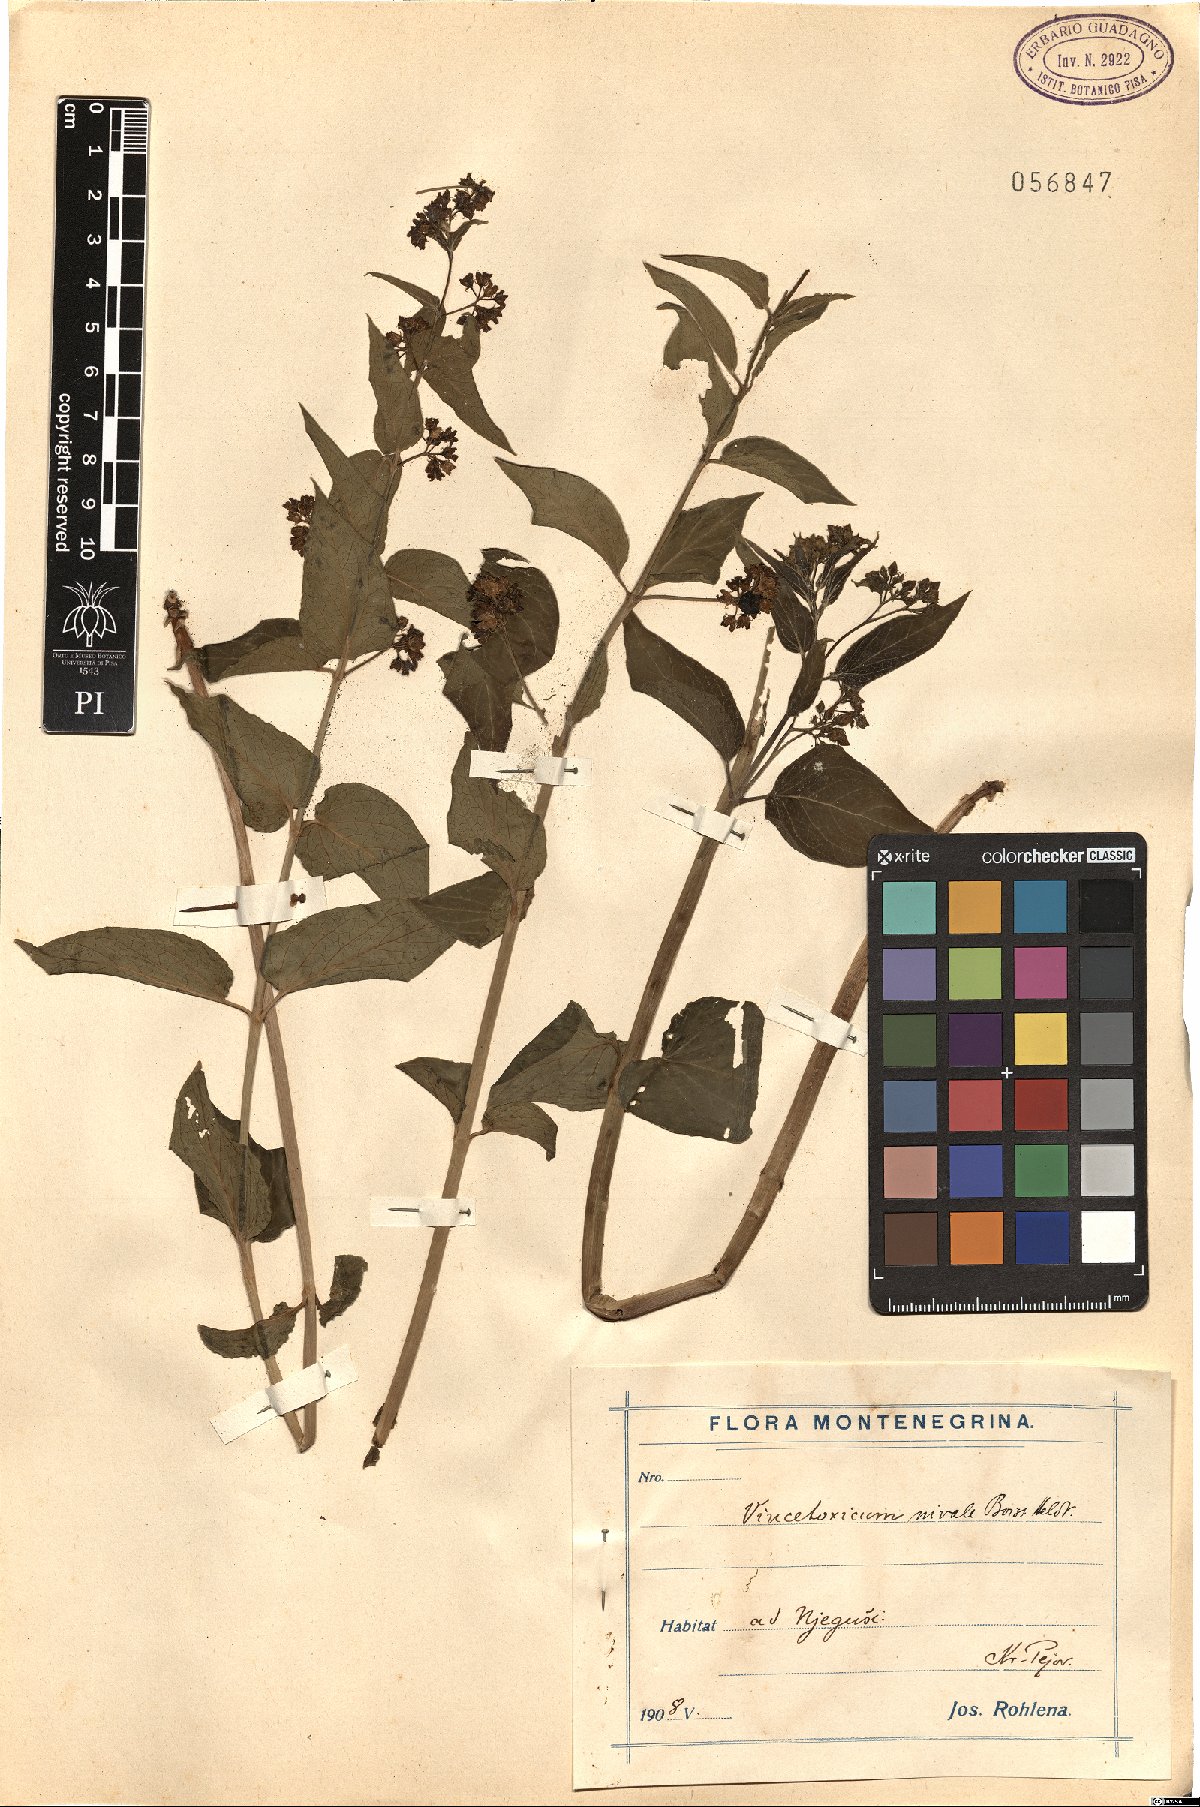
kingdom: Plantae
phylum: Tracheophyta
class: Magnoliopsida
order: Gentianales
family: Apocynaceae
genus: Vincetoxicum
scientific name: Vincetoxicum hirundinaria
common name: White swallowwort
